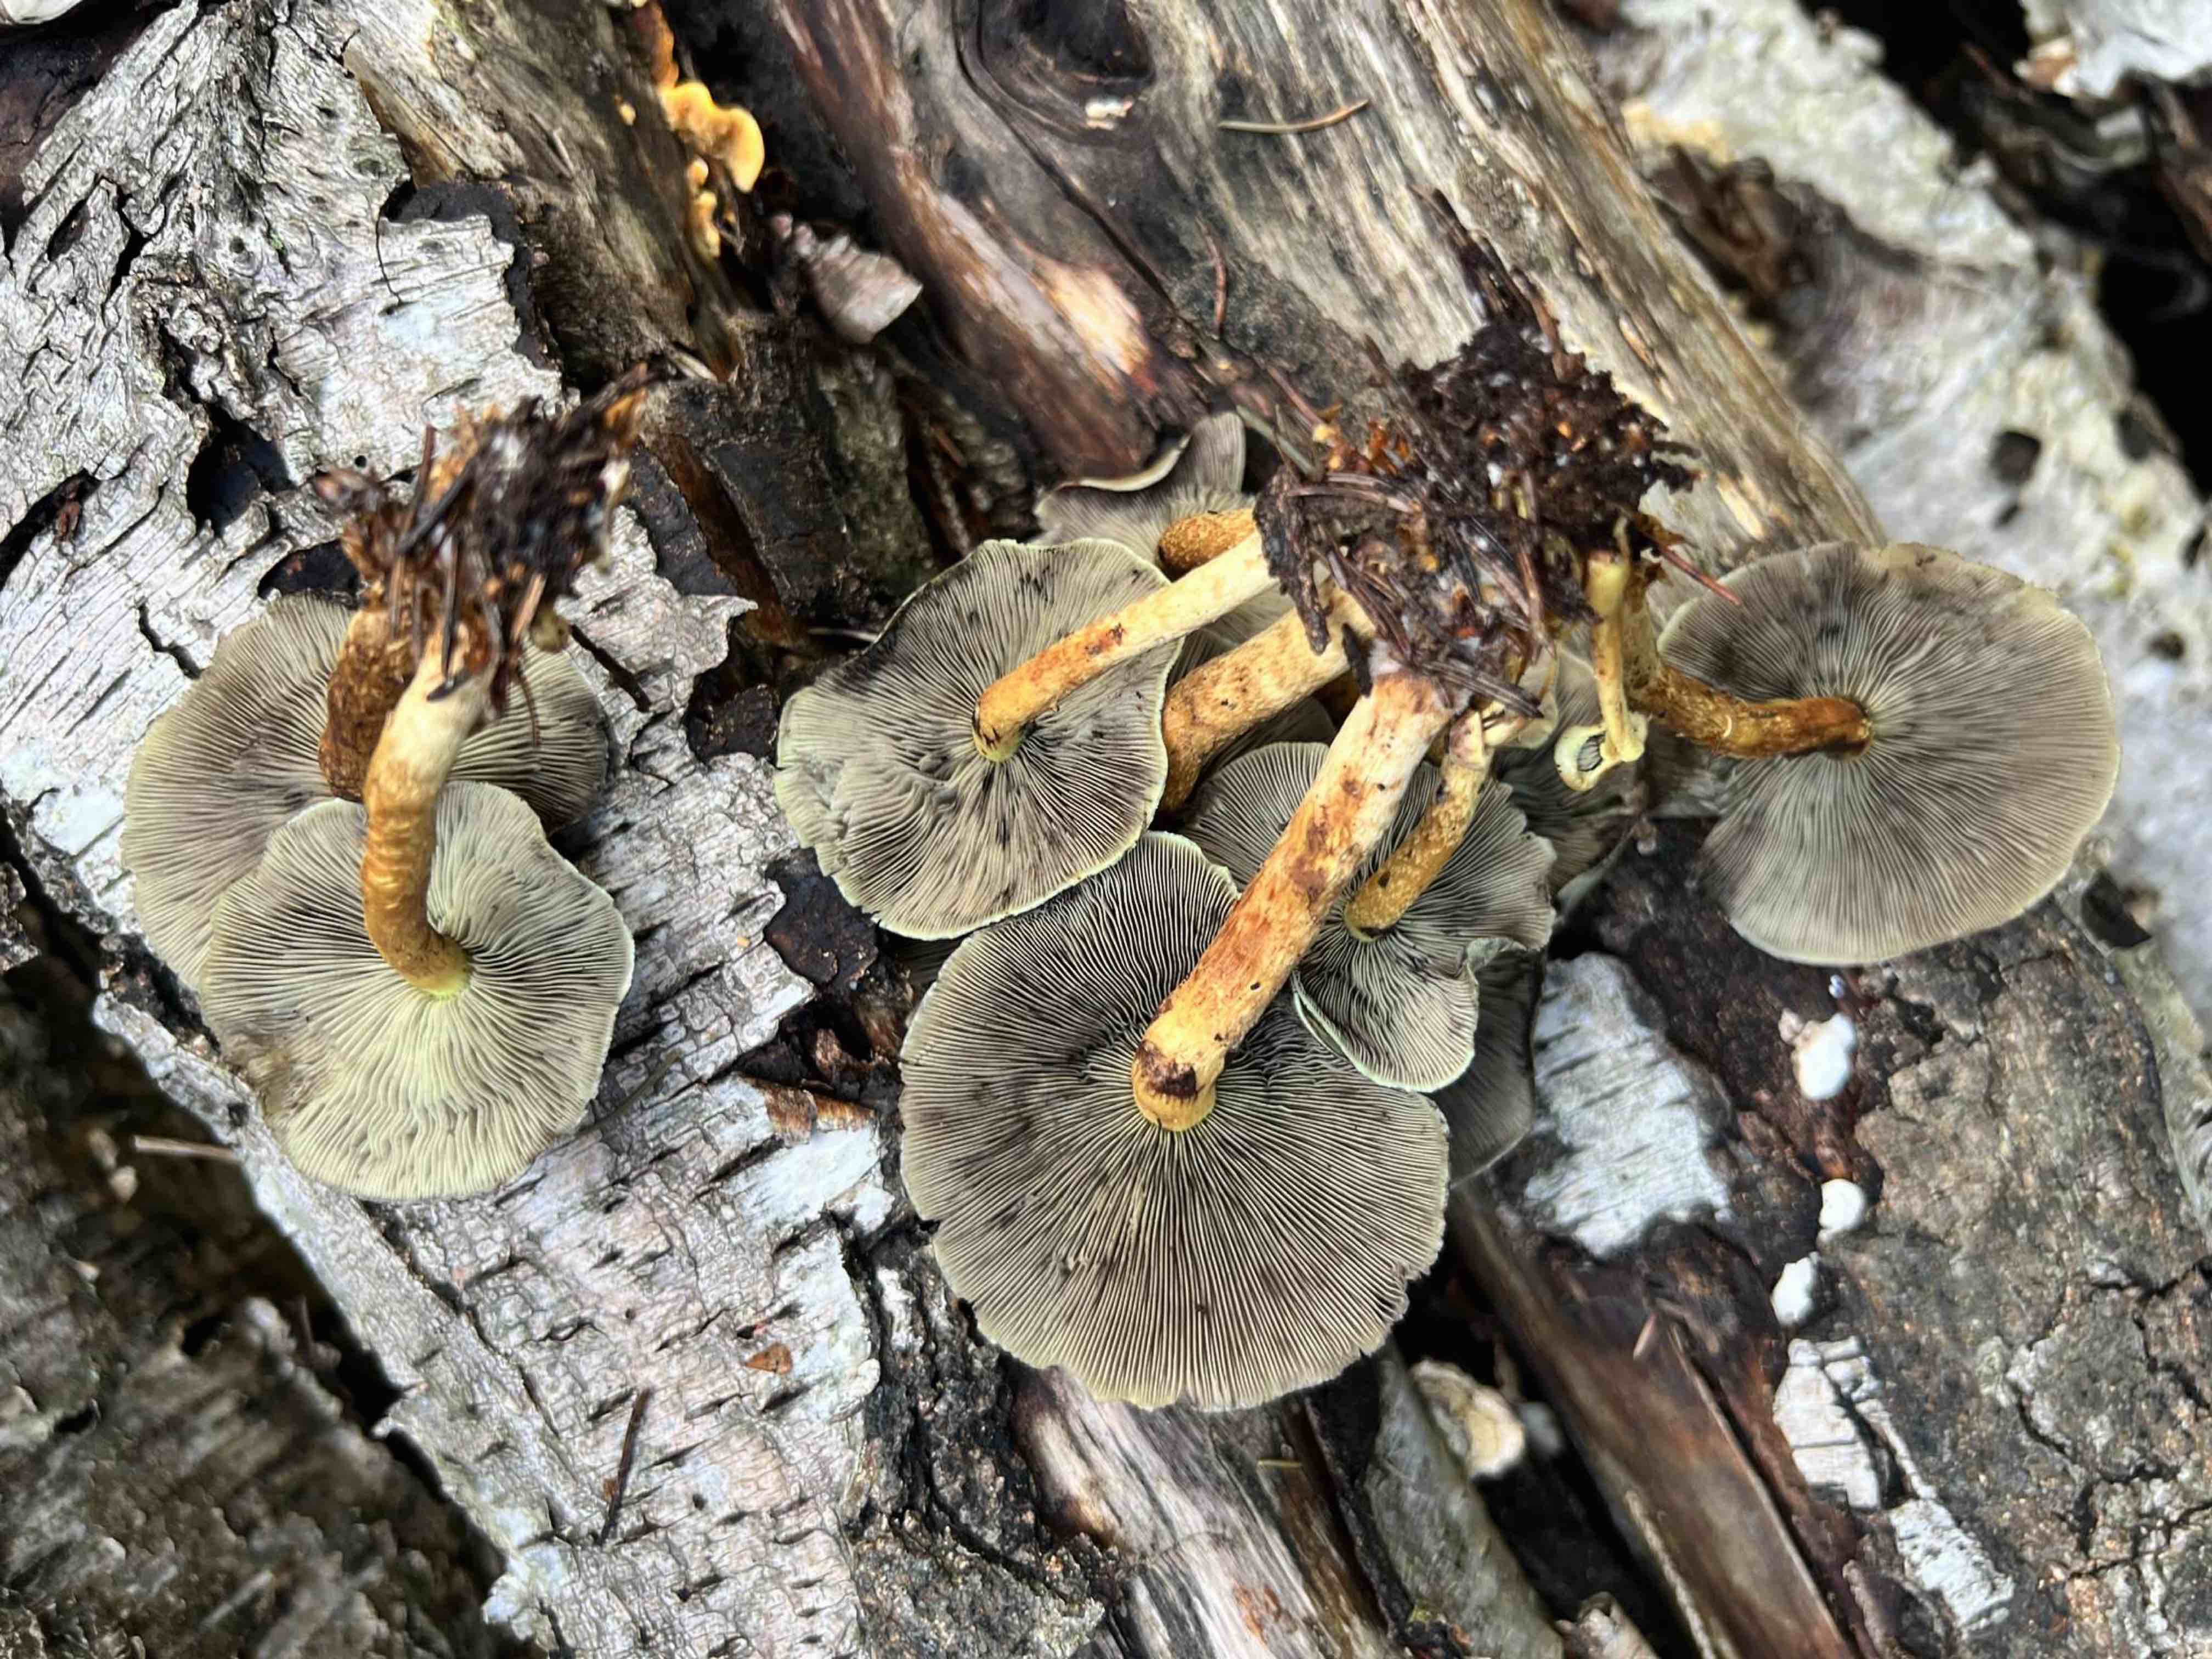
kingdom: Fungi
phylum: Basidiomycota
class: Agaricomycetes
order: Agaricales
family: Strophariaceae
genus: Hypholoma
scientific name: Hypholoma fasciculare
